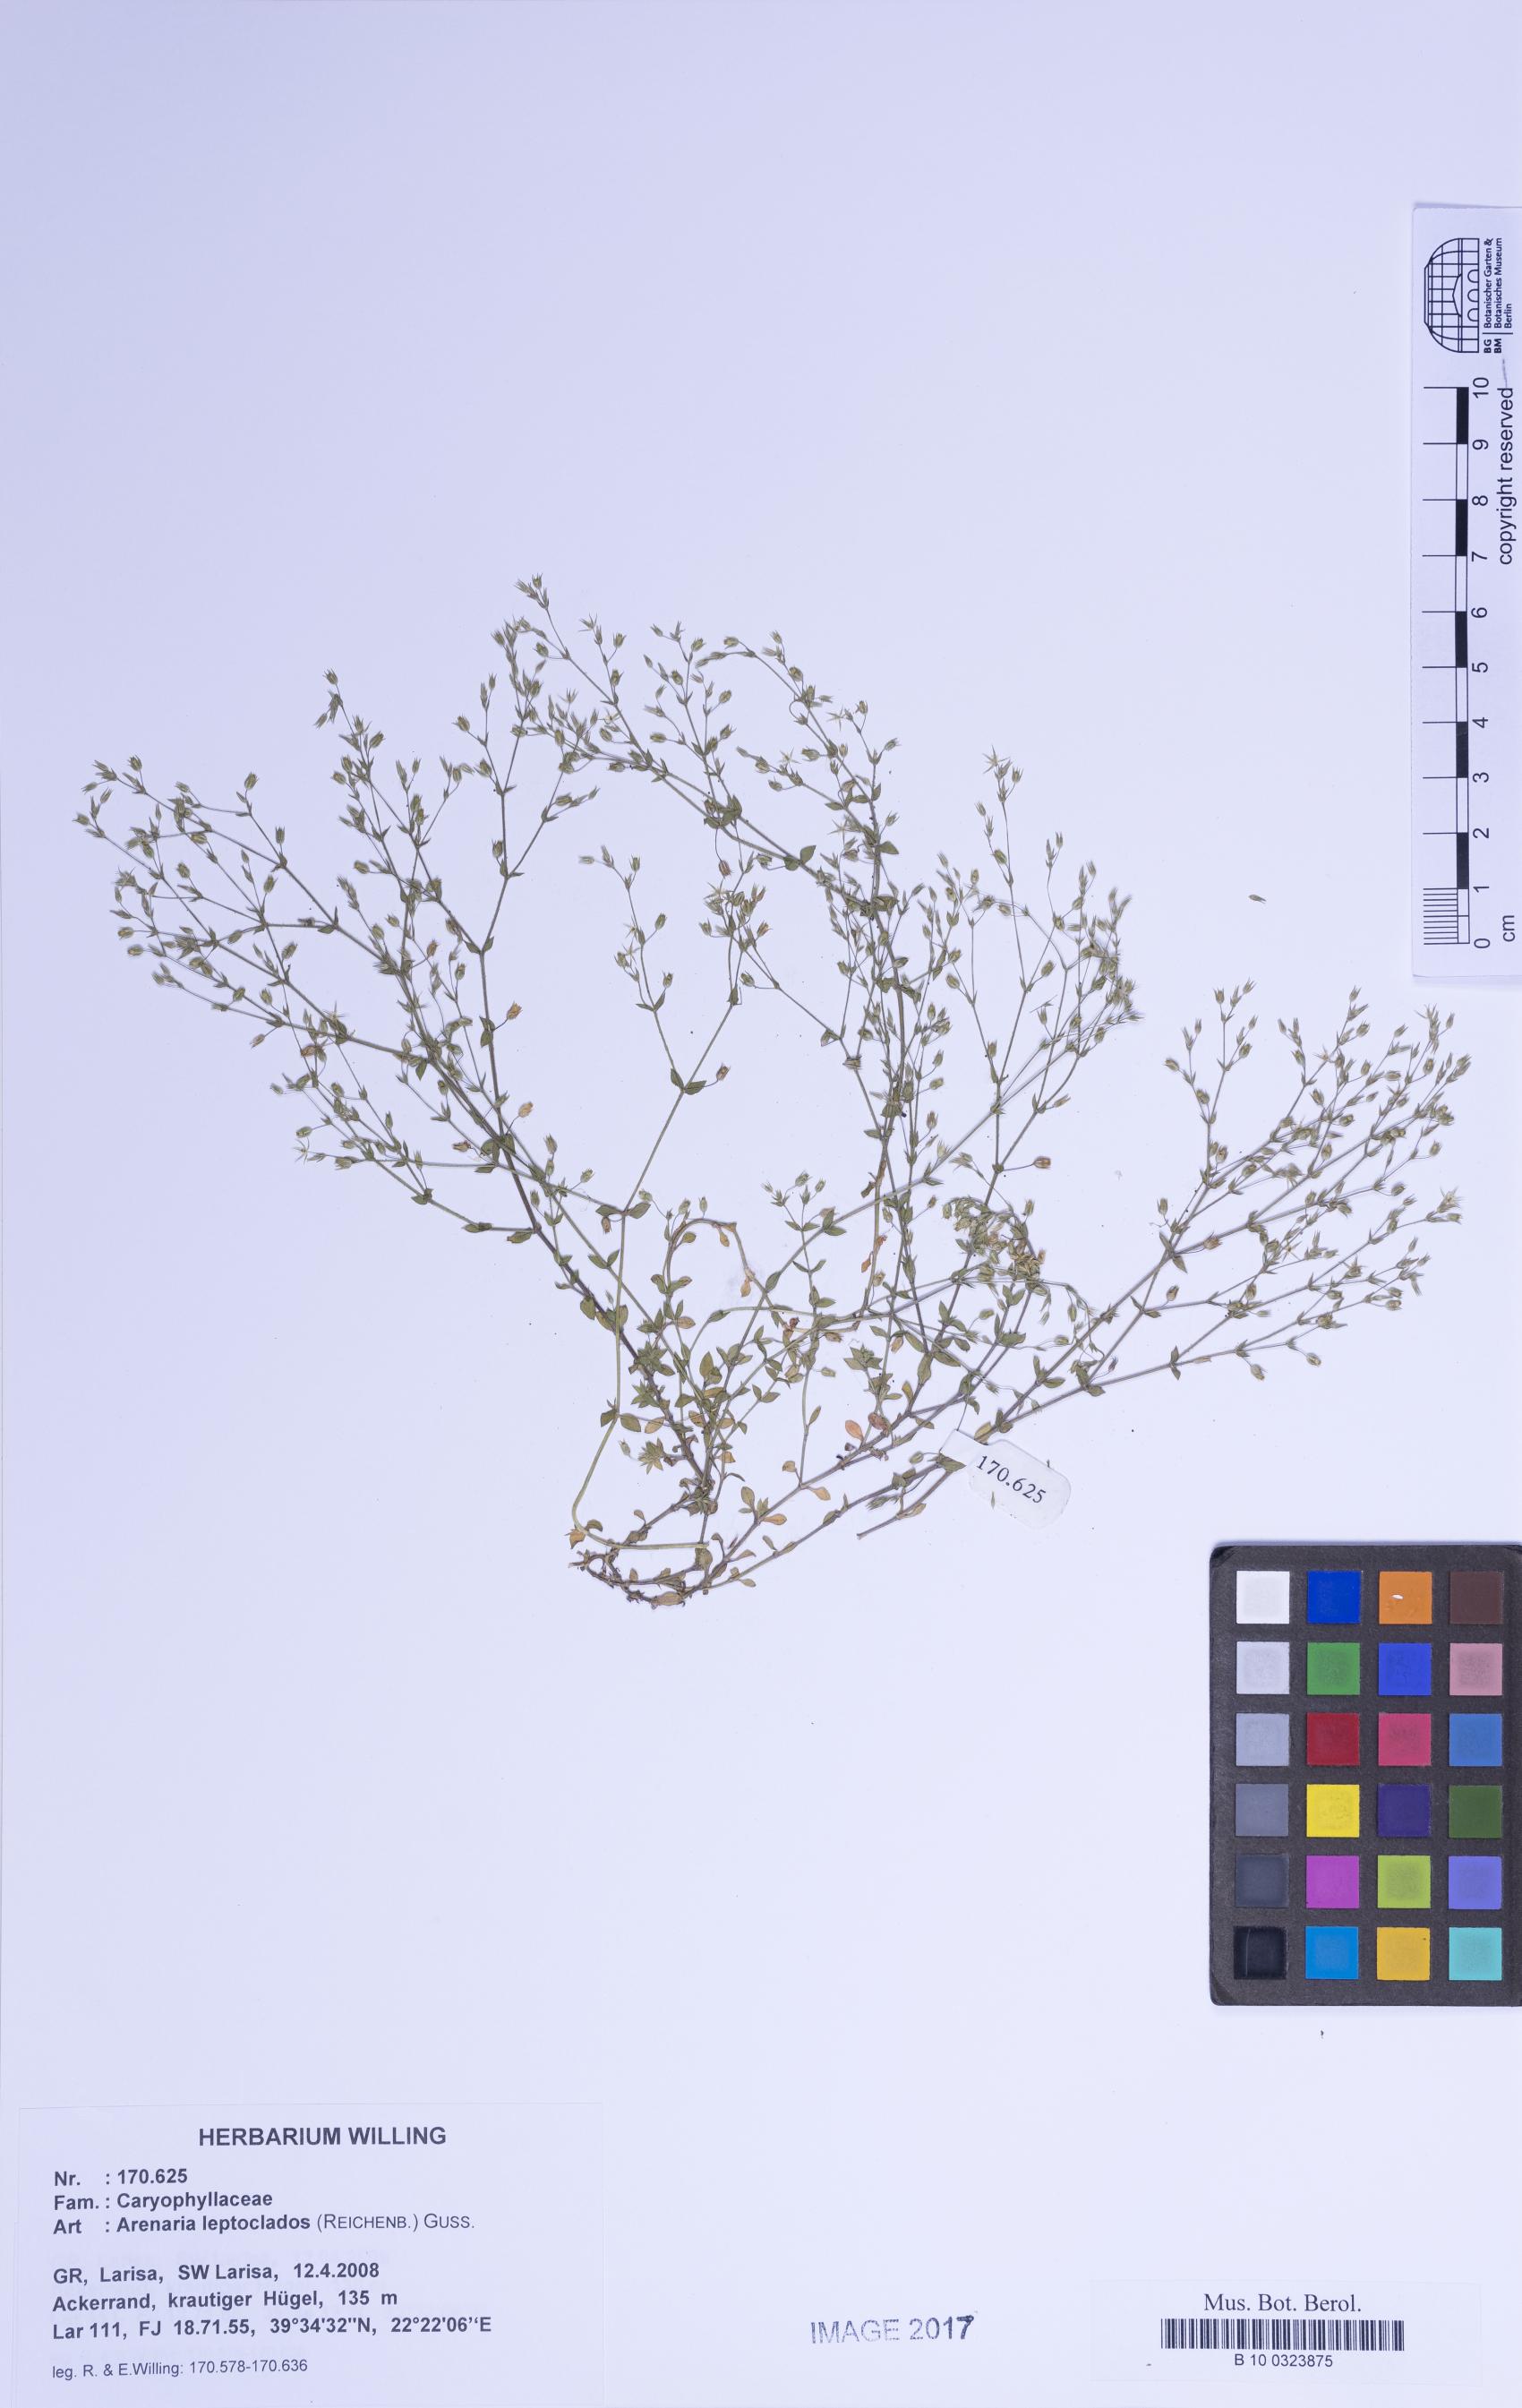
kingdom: Plantae
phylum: Tracheophyta
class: Magnoliopsida
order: Caryophyllales
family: Caryophyllaceae
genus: Arenaria
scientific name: Arenaria leptoclados
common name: Thyme-leaved sandwort
